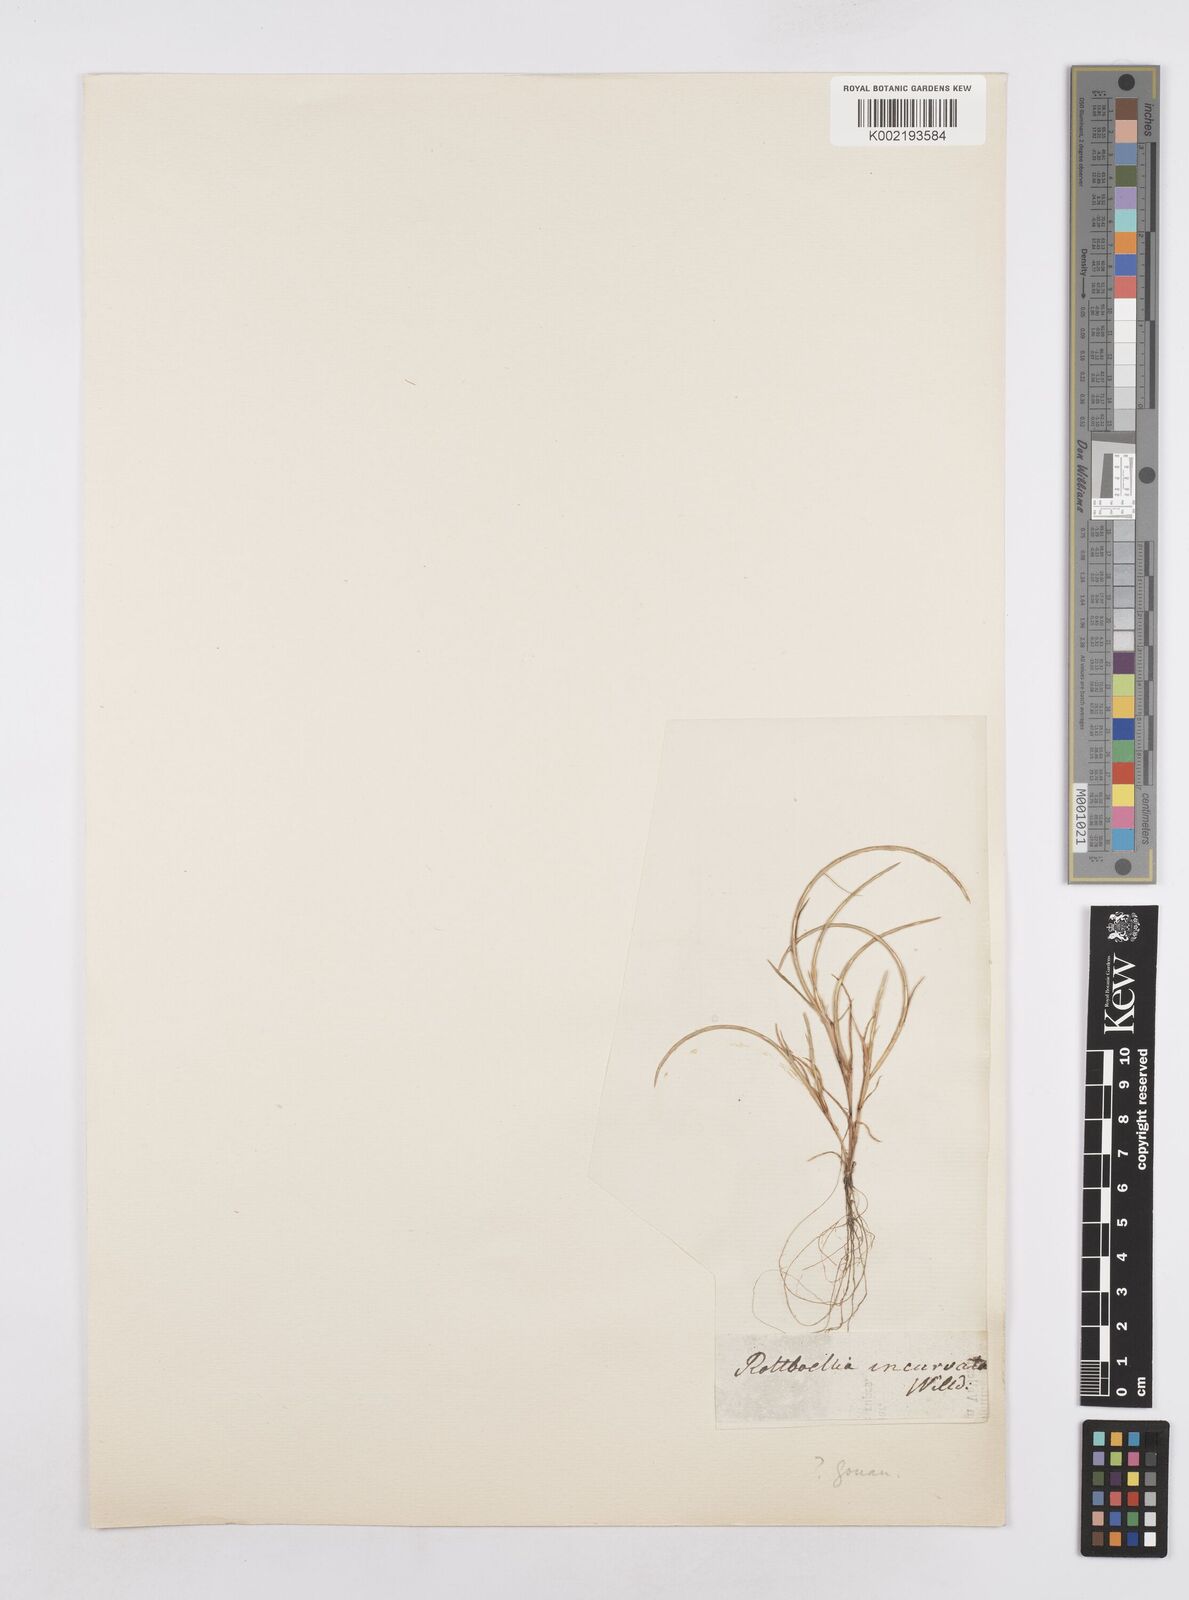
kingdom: Plantae
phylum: Tracheophyta
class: Liliopsida
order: Poales
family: Poaceae
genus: Parapholis
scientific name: Parapholis incurva
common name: Curved sicklegrass
